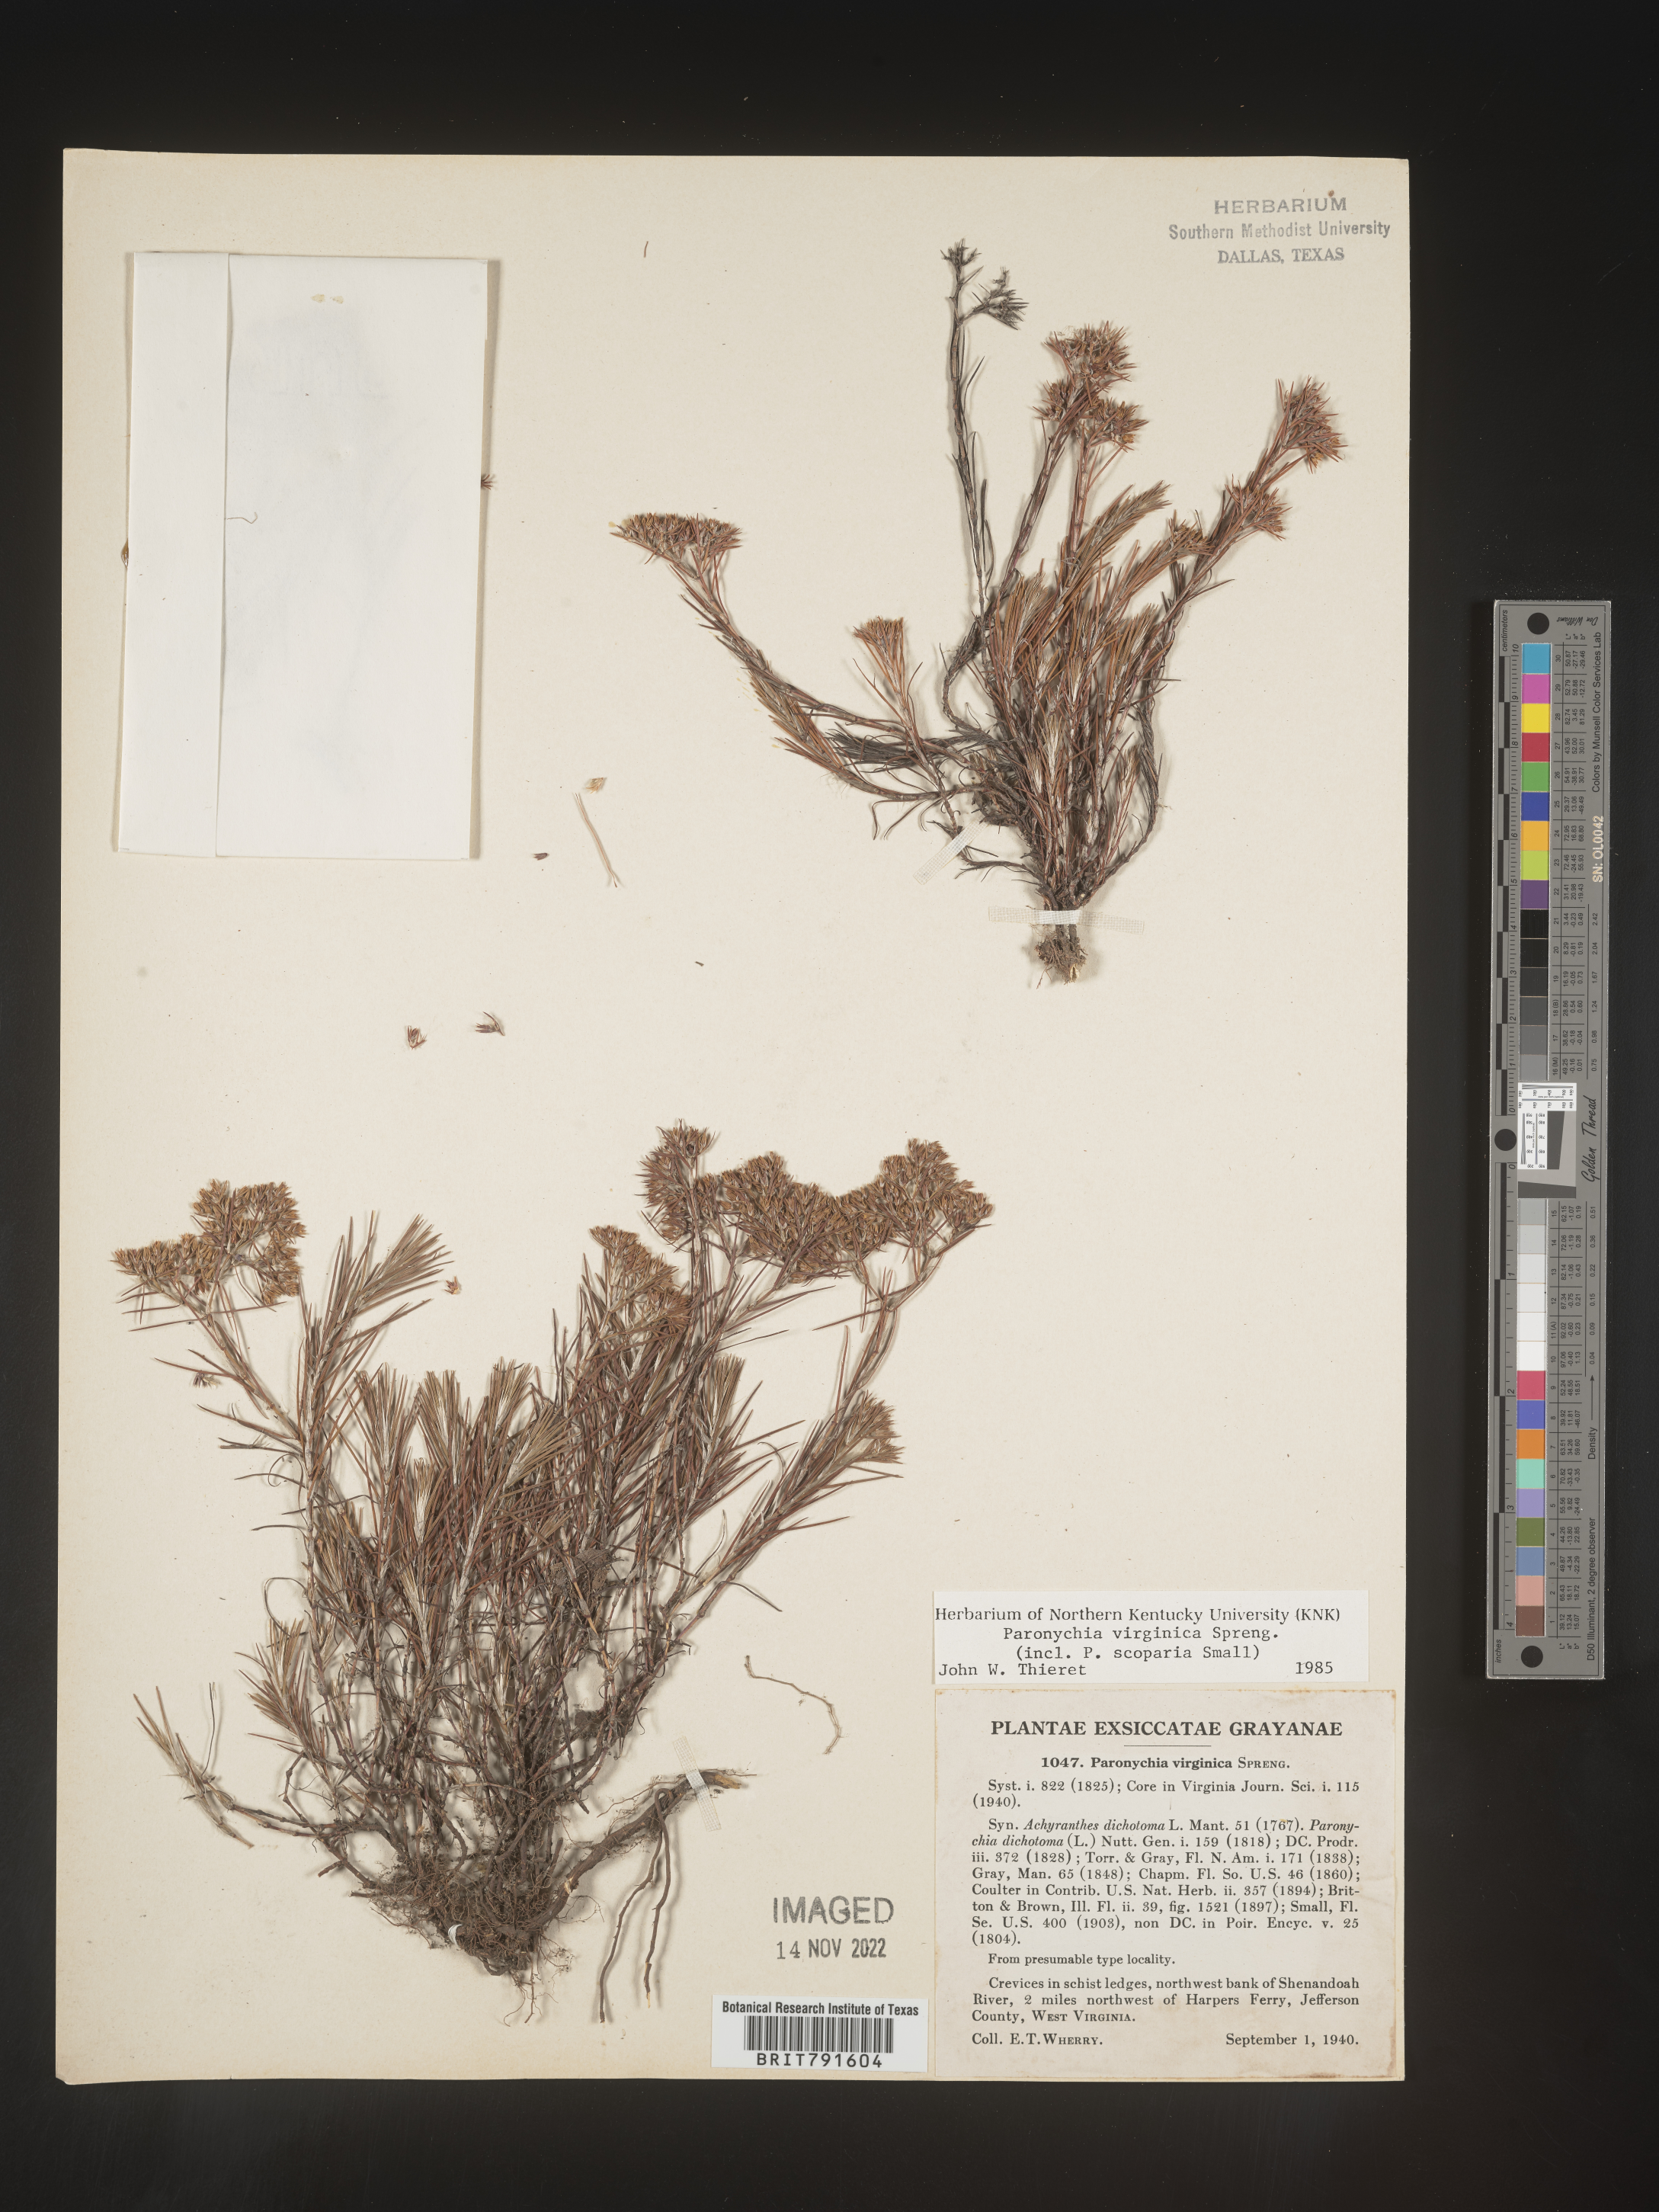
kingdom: Plantae
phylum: Tracheophyta
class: Magnoliopsida
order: Caryophyllales
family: Caryophyllaceae
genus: Paronychia
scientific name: Paronychia virginica
